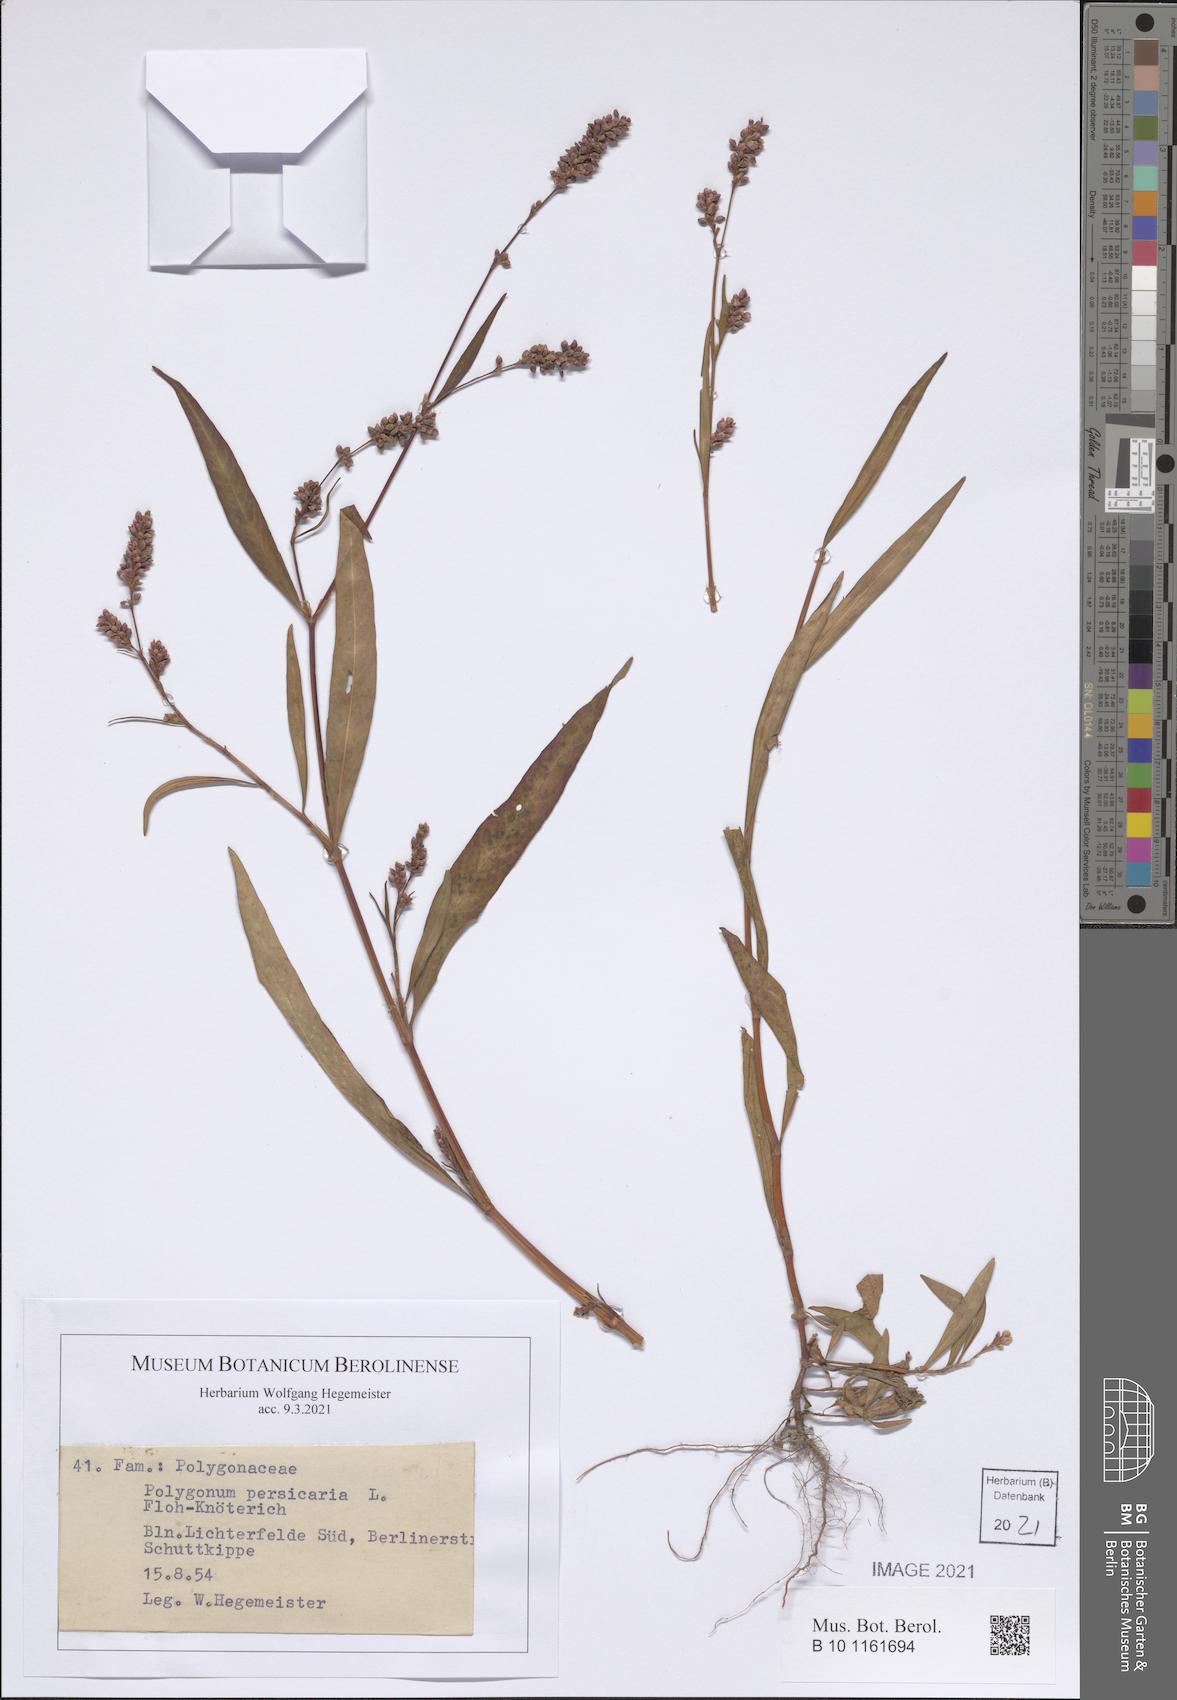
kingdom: Plantae
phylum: Tracheophyta
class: Magnoliopsida
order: Caryophyllales
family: Polygonaceae
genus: Persicaria
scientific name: Persicaria maculosa
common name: Redshank
